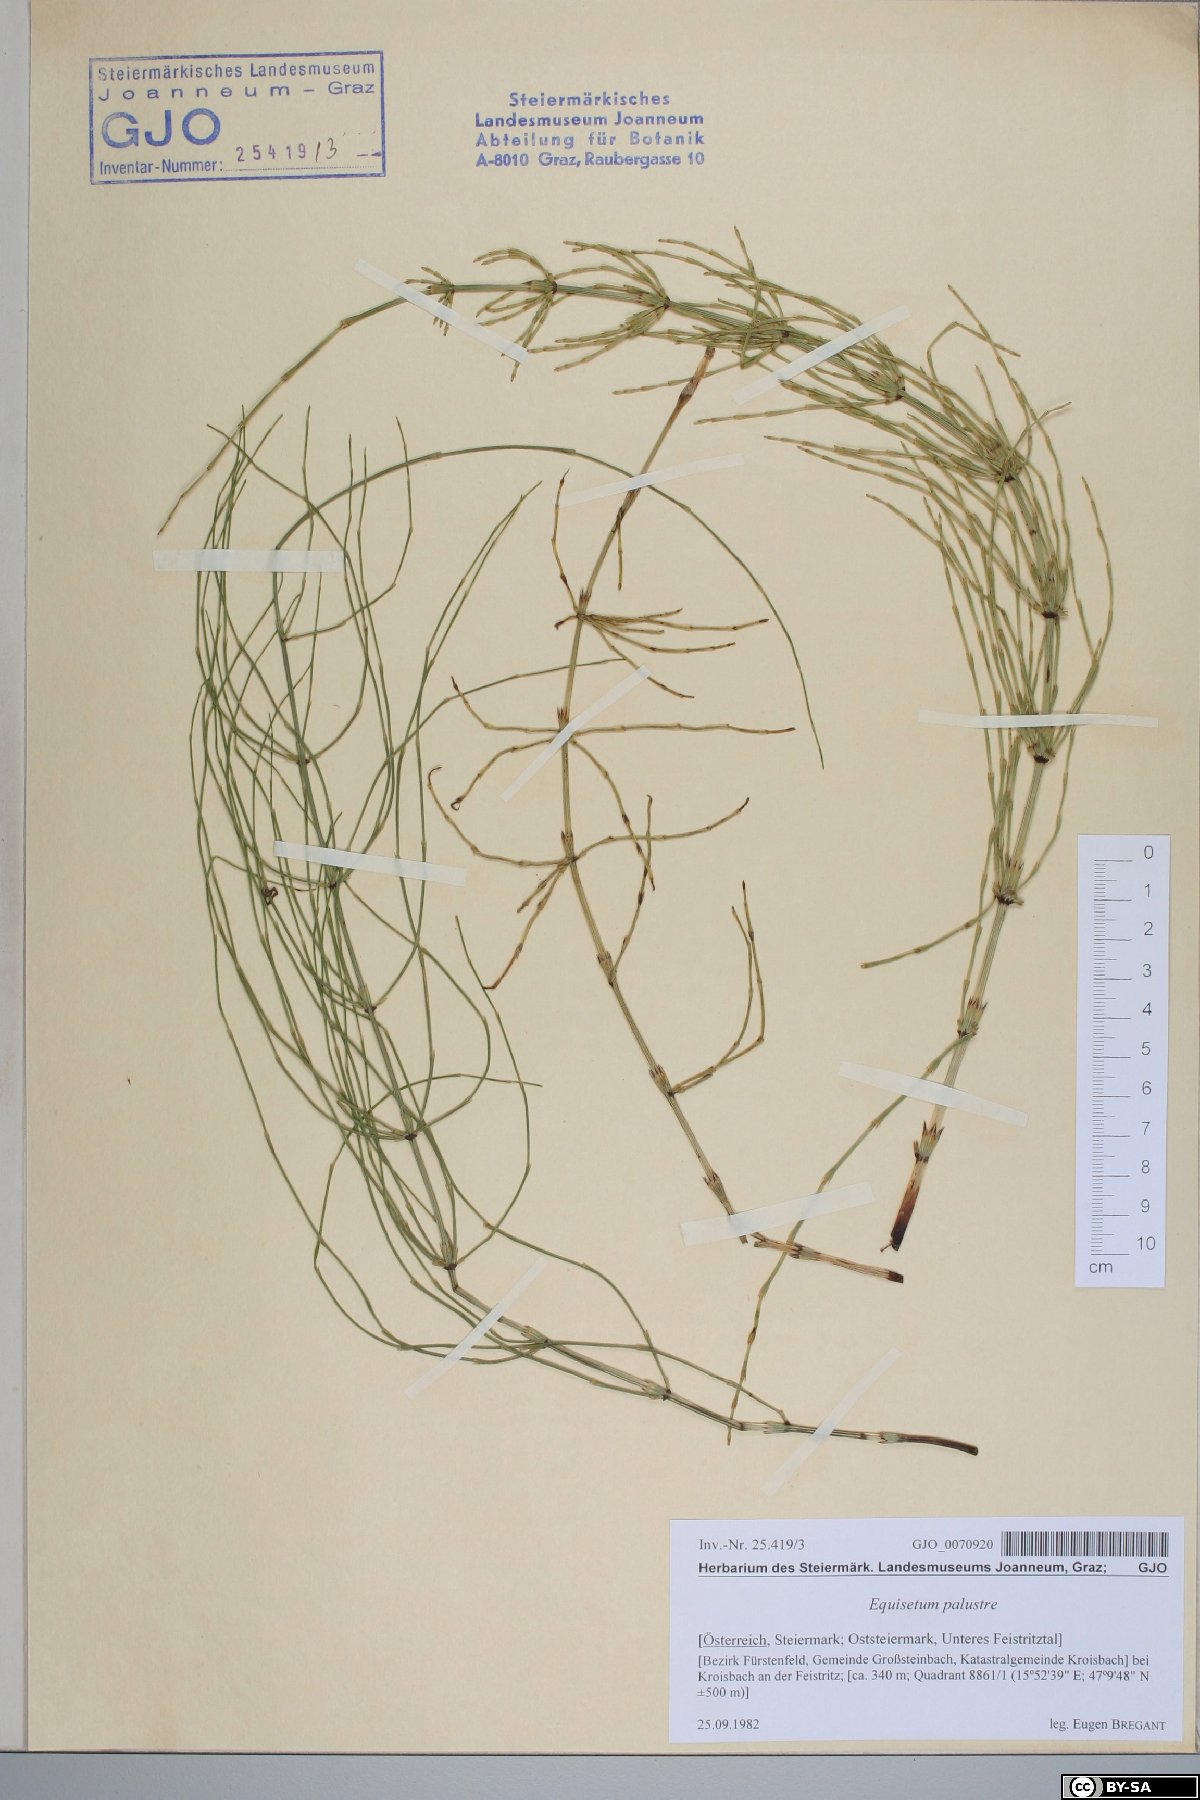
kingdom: Plantae
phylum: Tracheophyta
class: Polypodiopsida
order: Equisetales
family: Equisetaceae
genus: Equisetum
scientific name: Equisetum palustre
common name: Marsh horsetail
